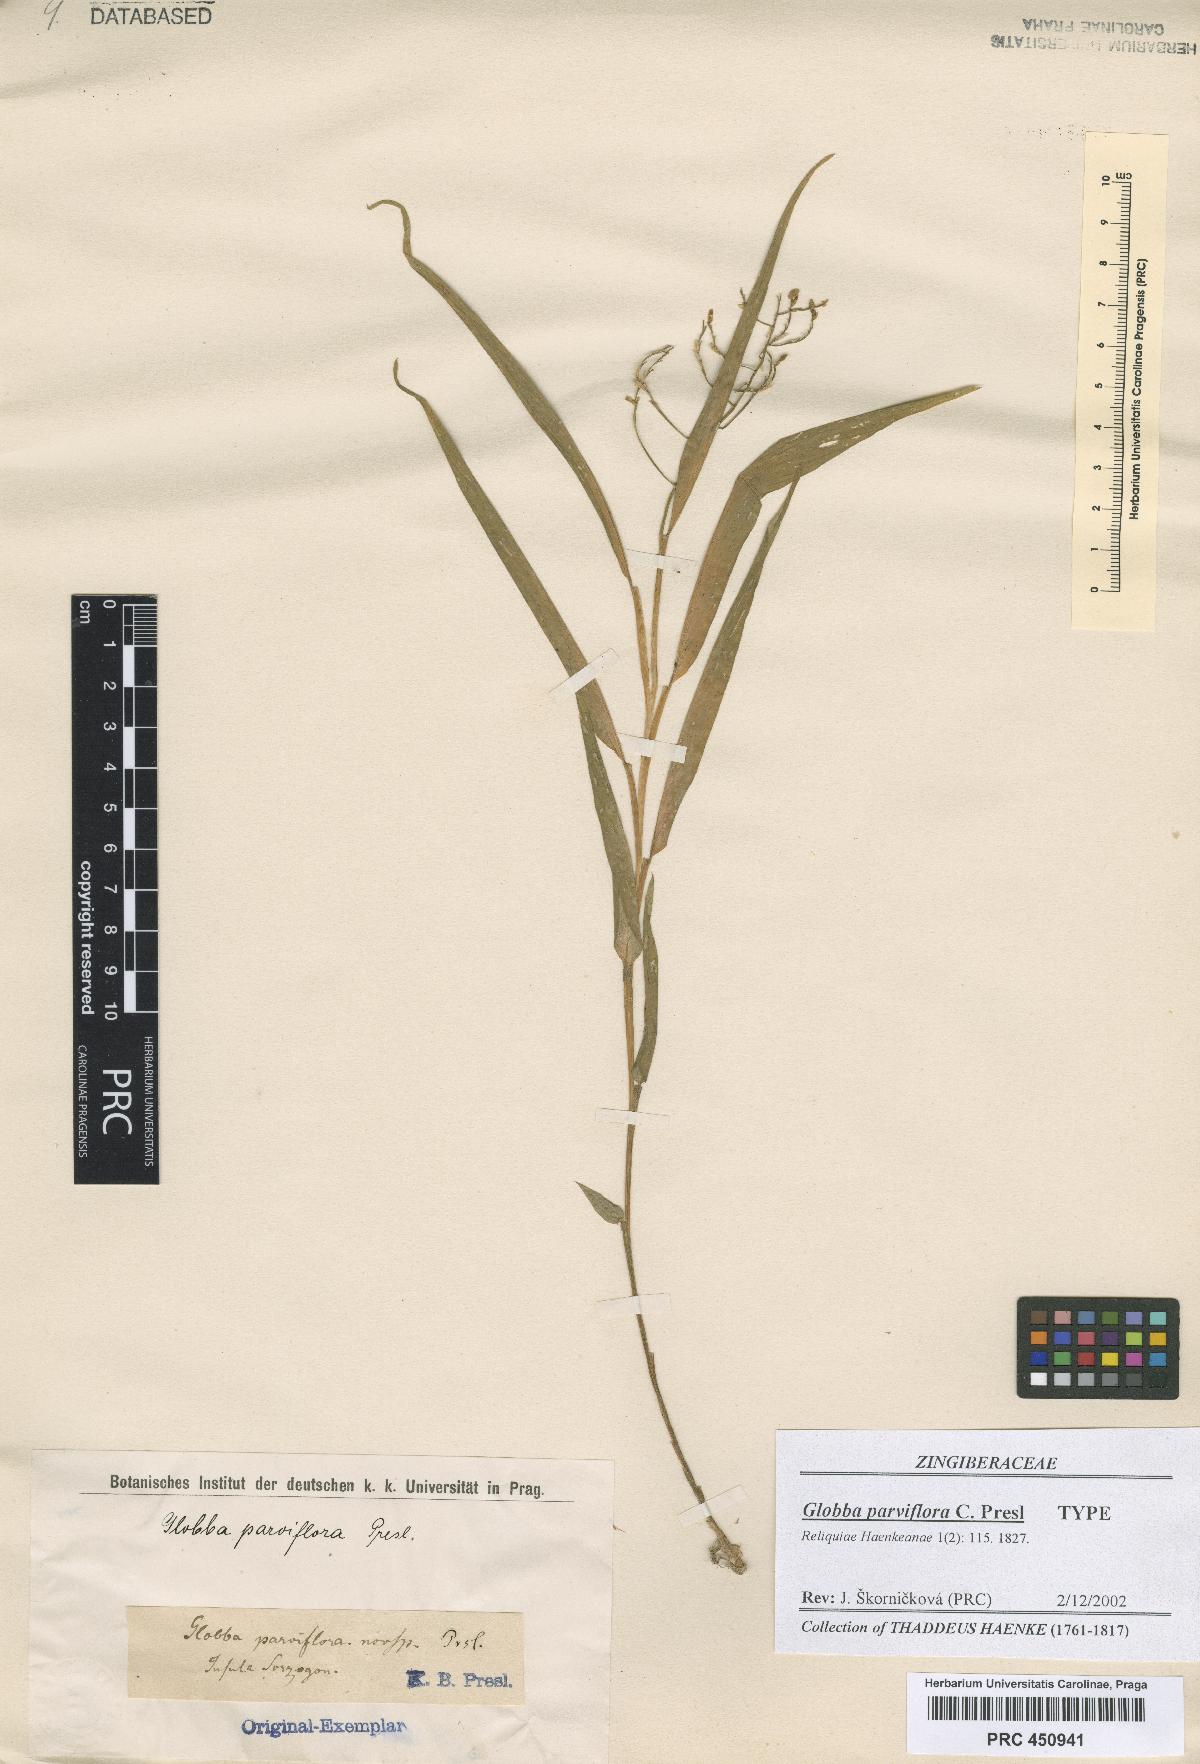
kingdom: Plantae
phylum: Tracheophyta
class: Liliopsida
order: Zingiberales
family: Zingiberaceae
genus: Globba
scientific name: Globba parviflora
